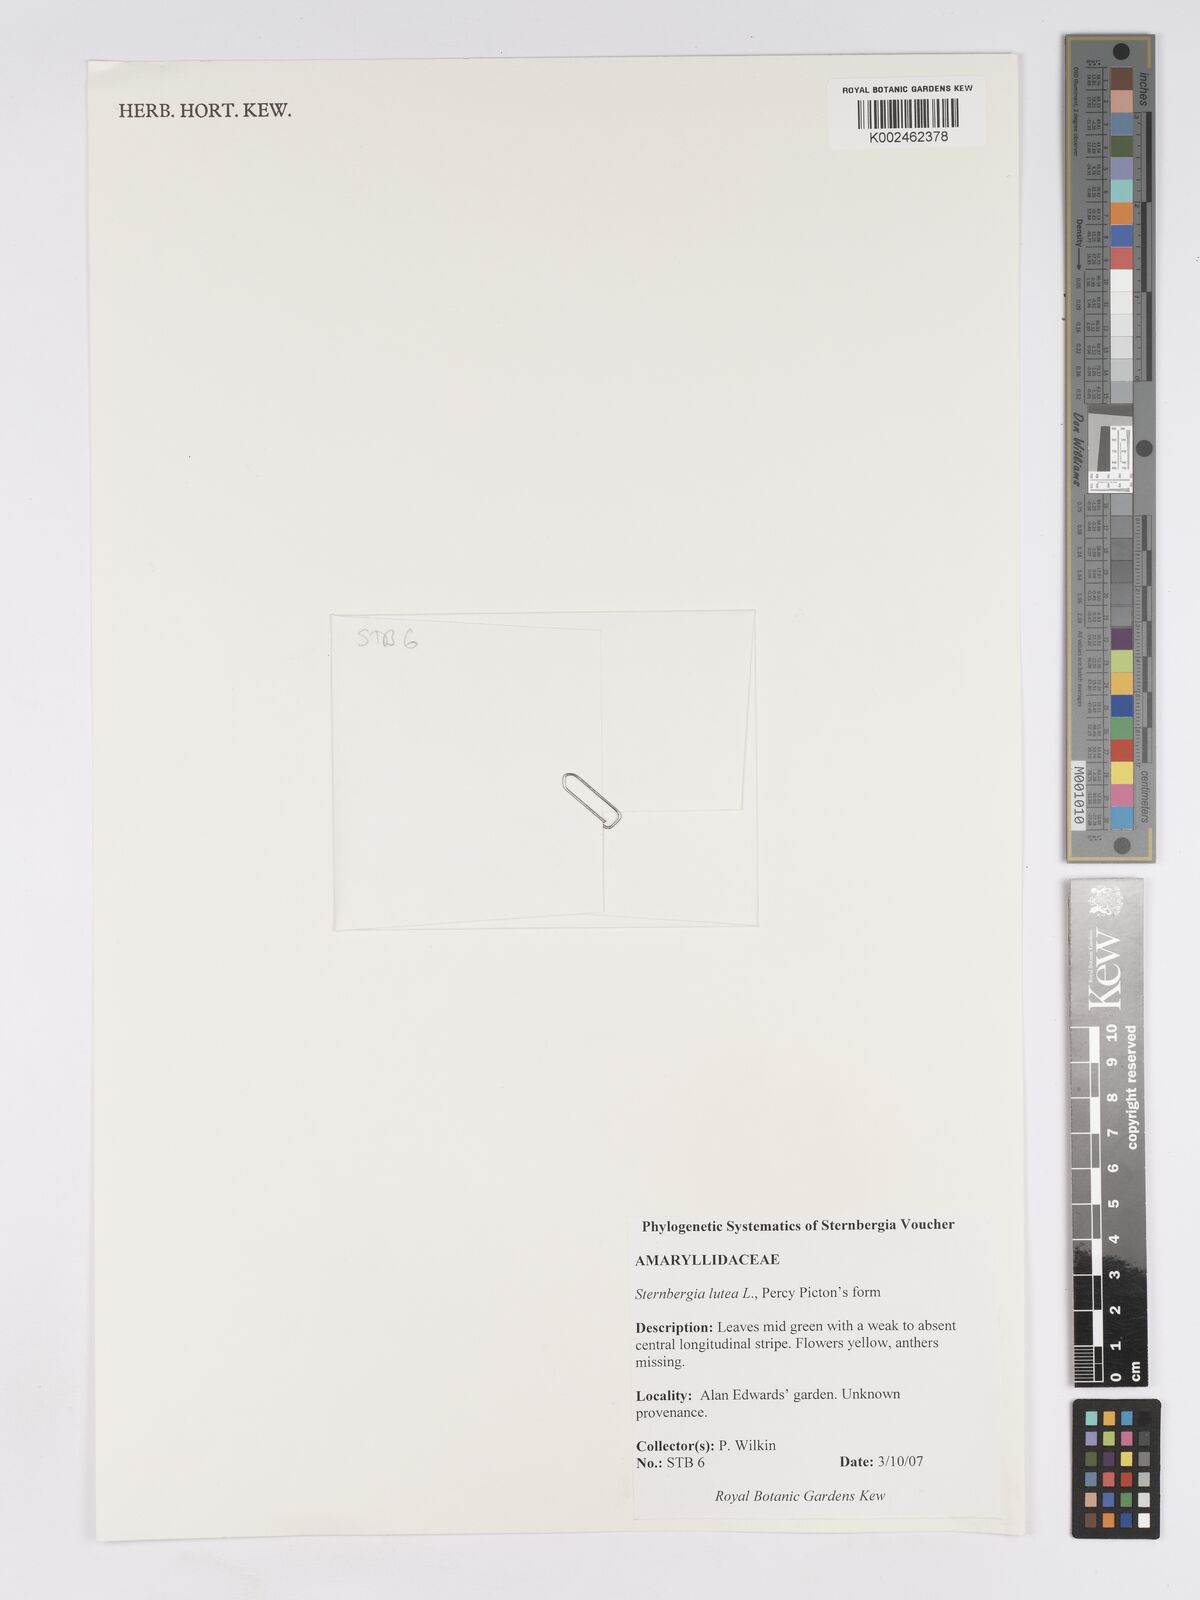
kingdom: Plantae
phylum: Tracheophyta
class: Liliopsida
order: Asparagales
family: Amaryllidaceae
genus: Sternbergia
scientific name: Sternbergia lutea
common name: Winter daffodil
